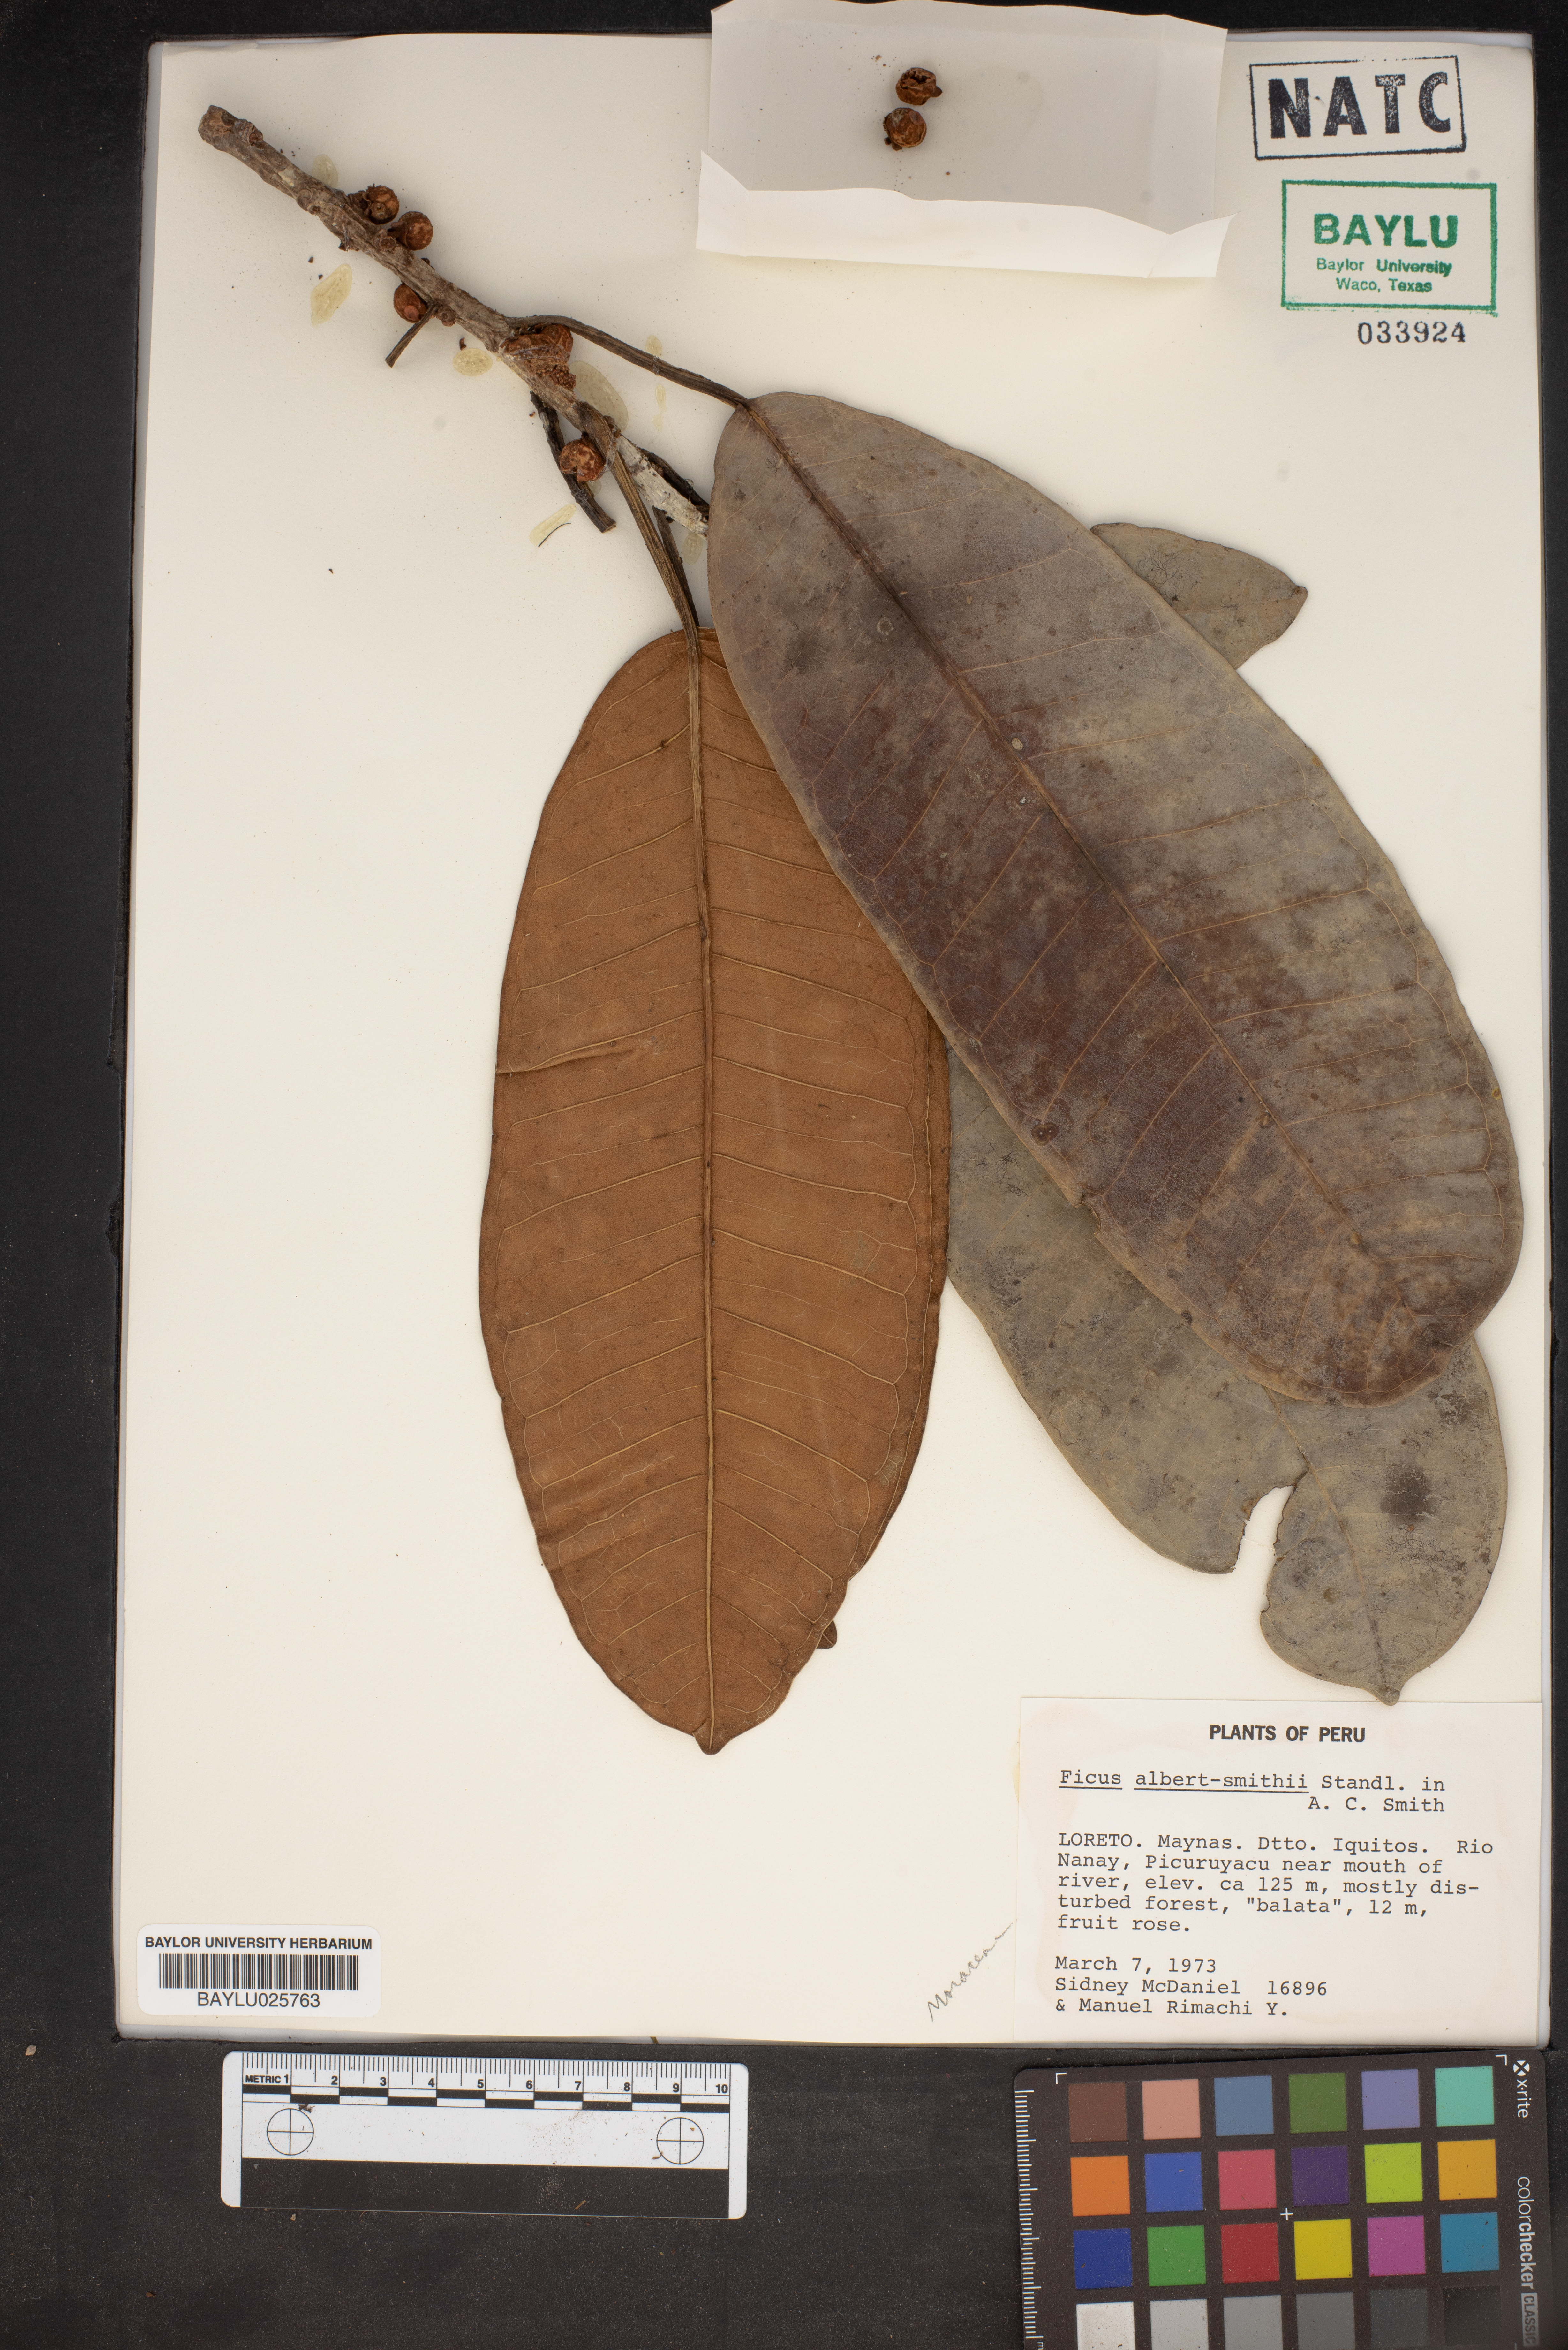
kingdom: Plantae
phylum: Tracheophyta
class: Magnoliopsida
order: Rosales
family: Moraceae
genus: Ficus
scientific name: Ficus albert-smithii
